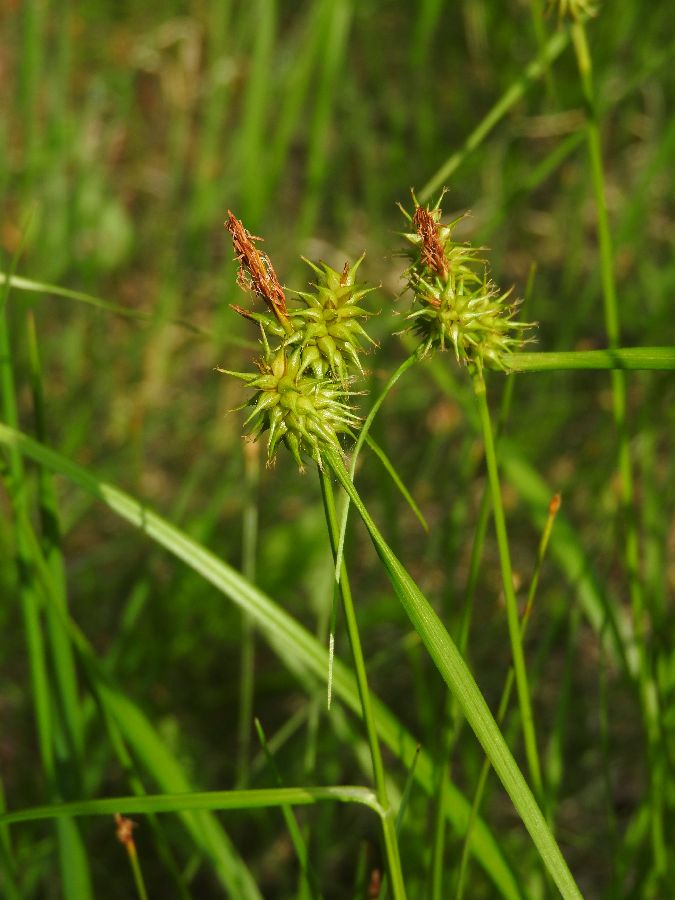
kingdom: Plantae
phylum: Tracheophyta
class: Liliopsida
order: Poales
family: Cyperaceae
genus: Carex
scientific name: Carex flava
